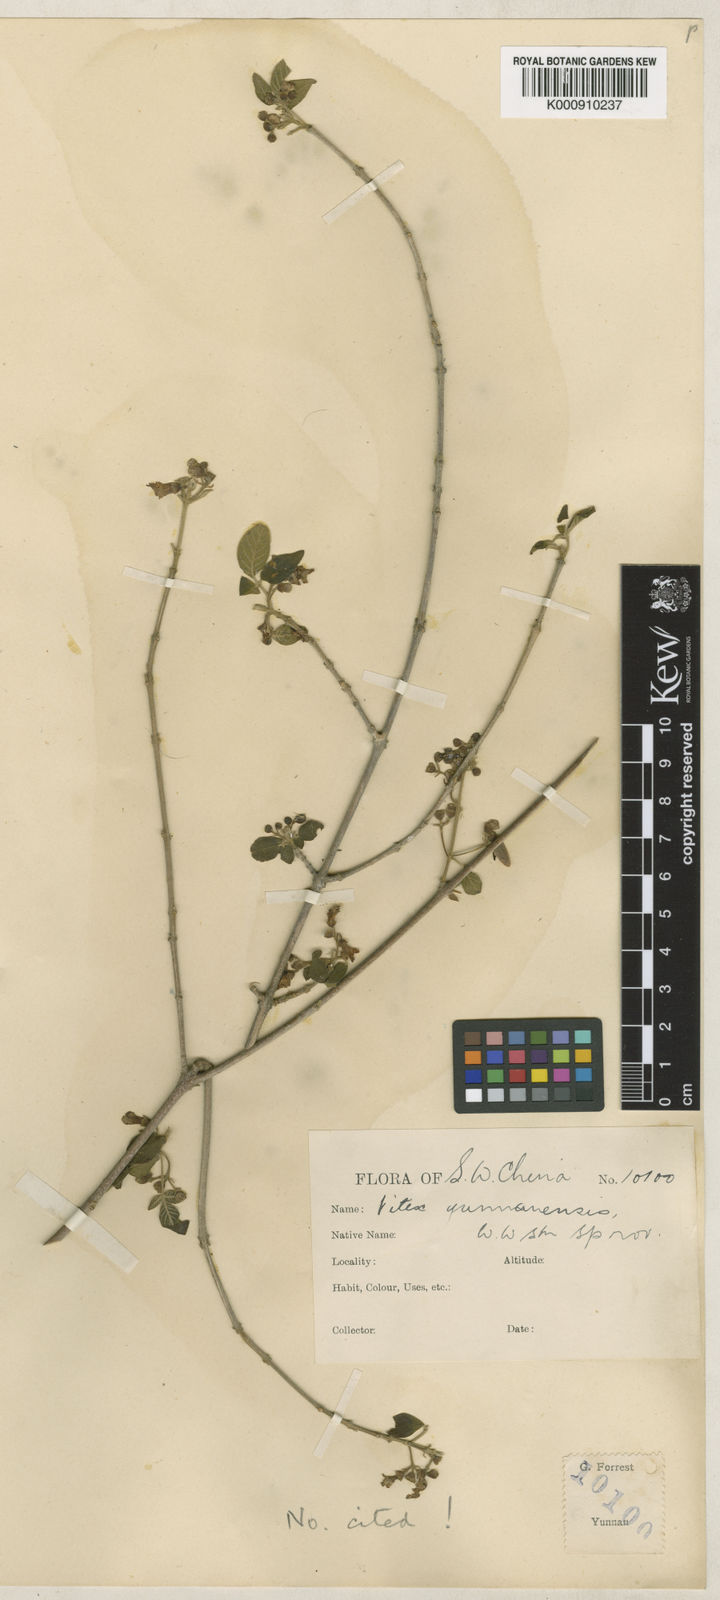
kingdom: Plantae
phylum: Tracheophyta
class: Magnoliopsida
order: Lamiales
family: Lamiaceae
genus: Vitex
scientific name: Vitex yunnanensis
